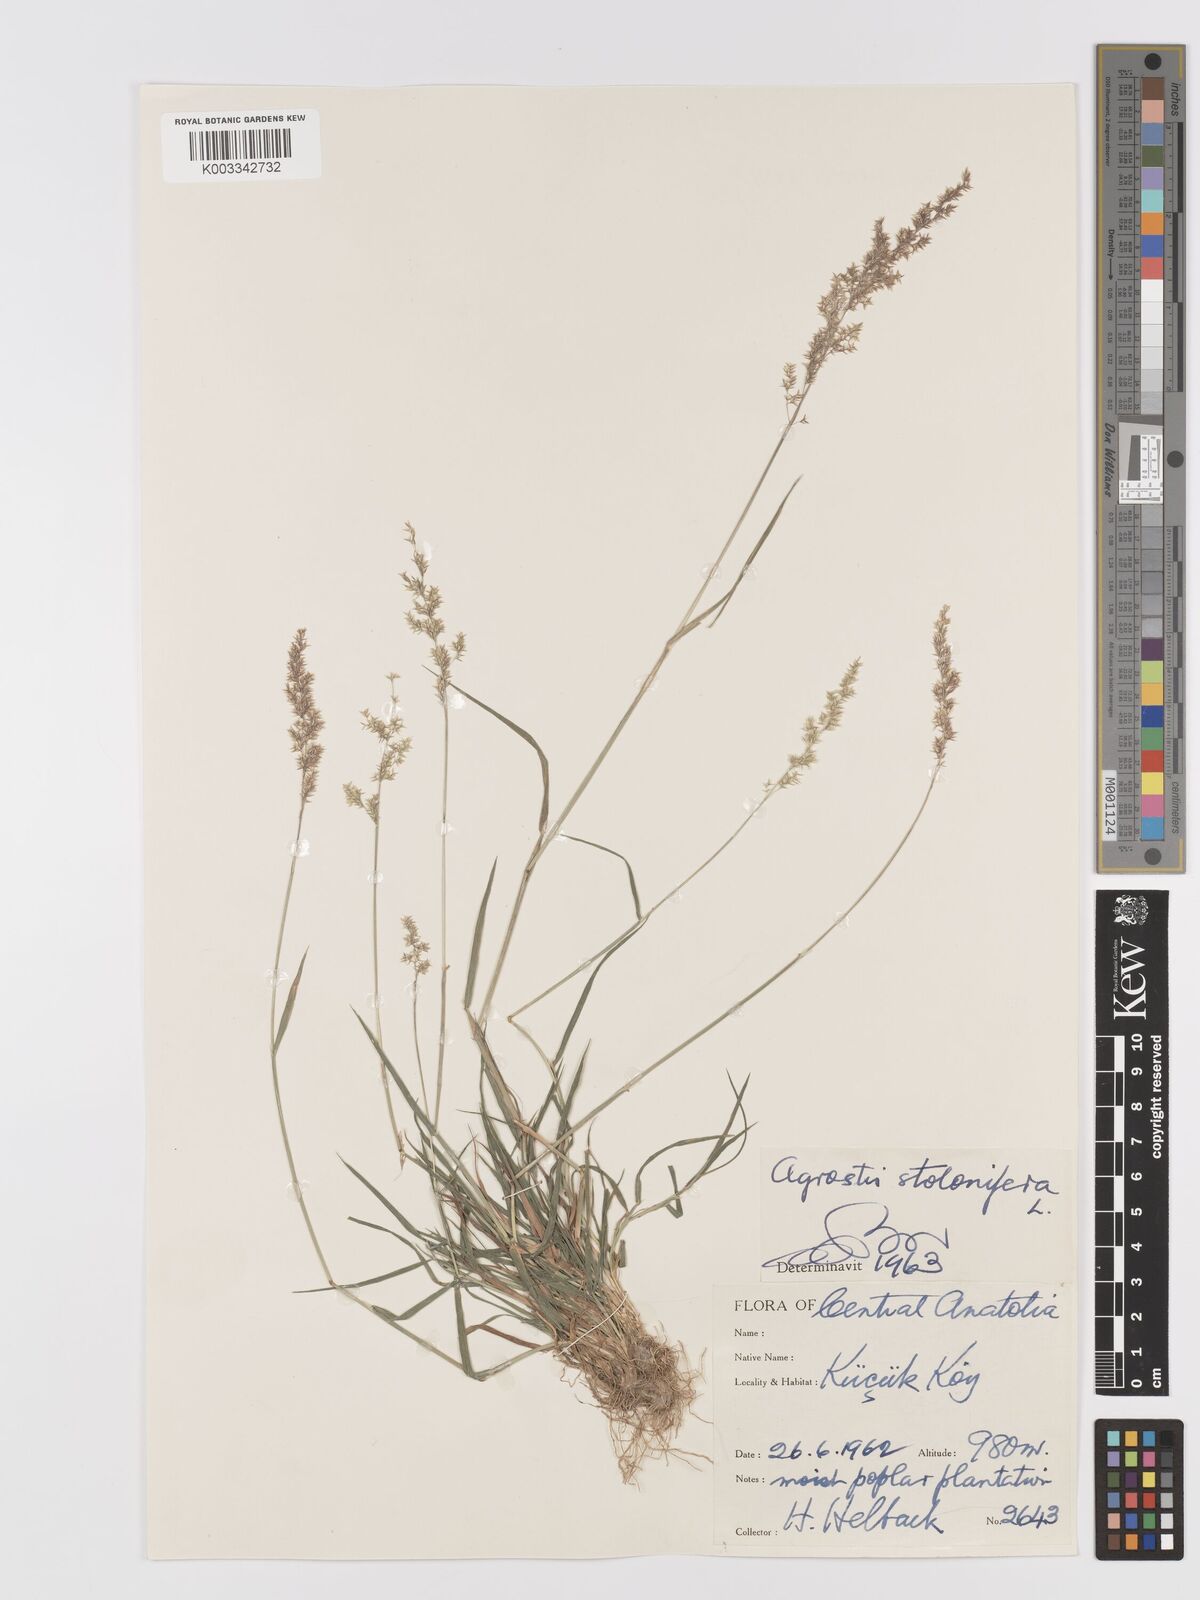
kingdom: Plantae
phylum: Tracheophyta
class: Liliopsida
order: Poales
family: Poaceae
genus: Agrostis
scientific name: Agrostis stolonifera
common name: Creeping bentgrass
